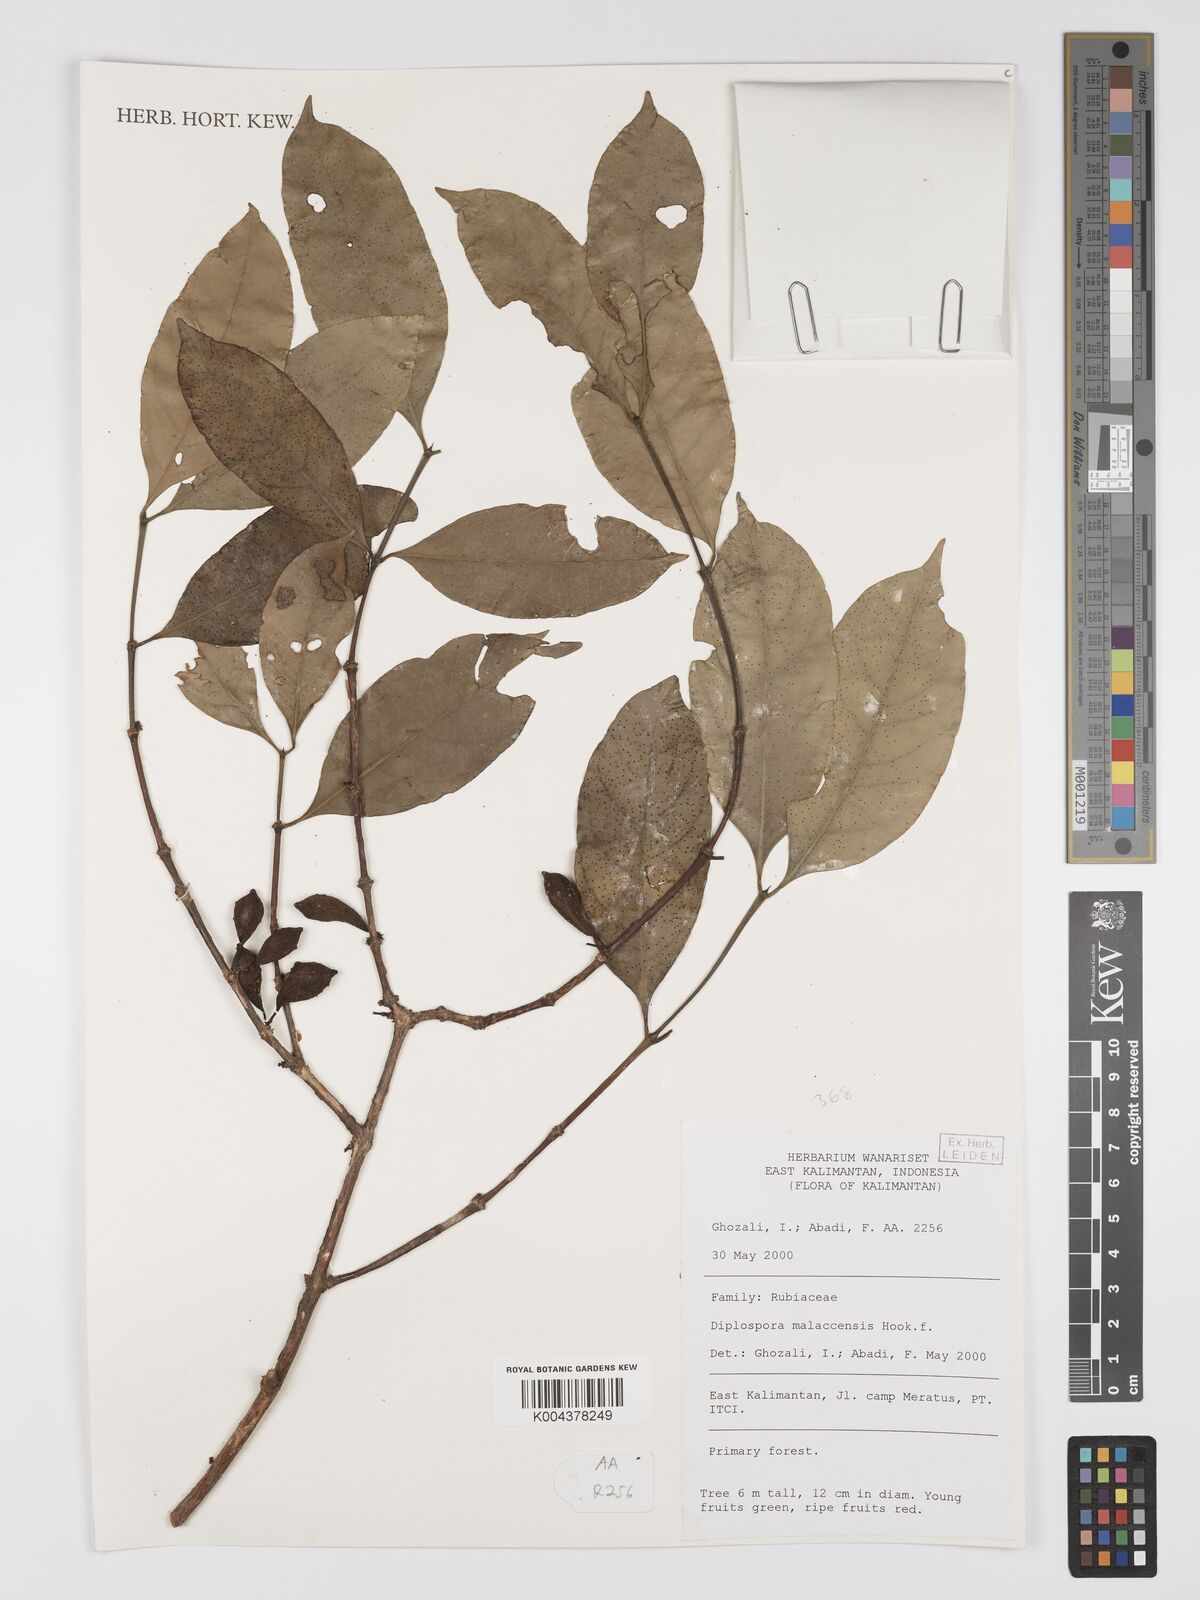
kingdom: Plantae
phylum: Tracheophyta
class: Magnoliopsida
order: Gentianales
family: Rubiaceae
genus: Discospermum
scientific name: Discospermum malaccense
